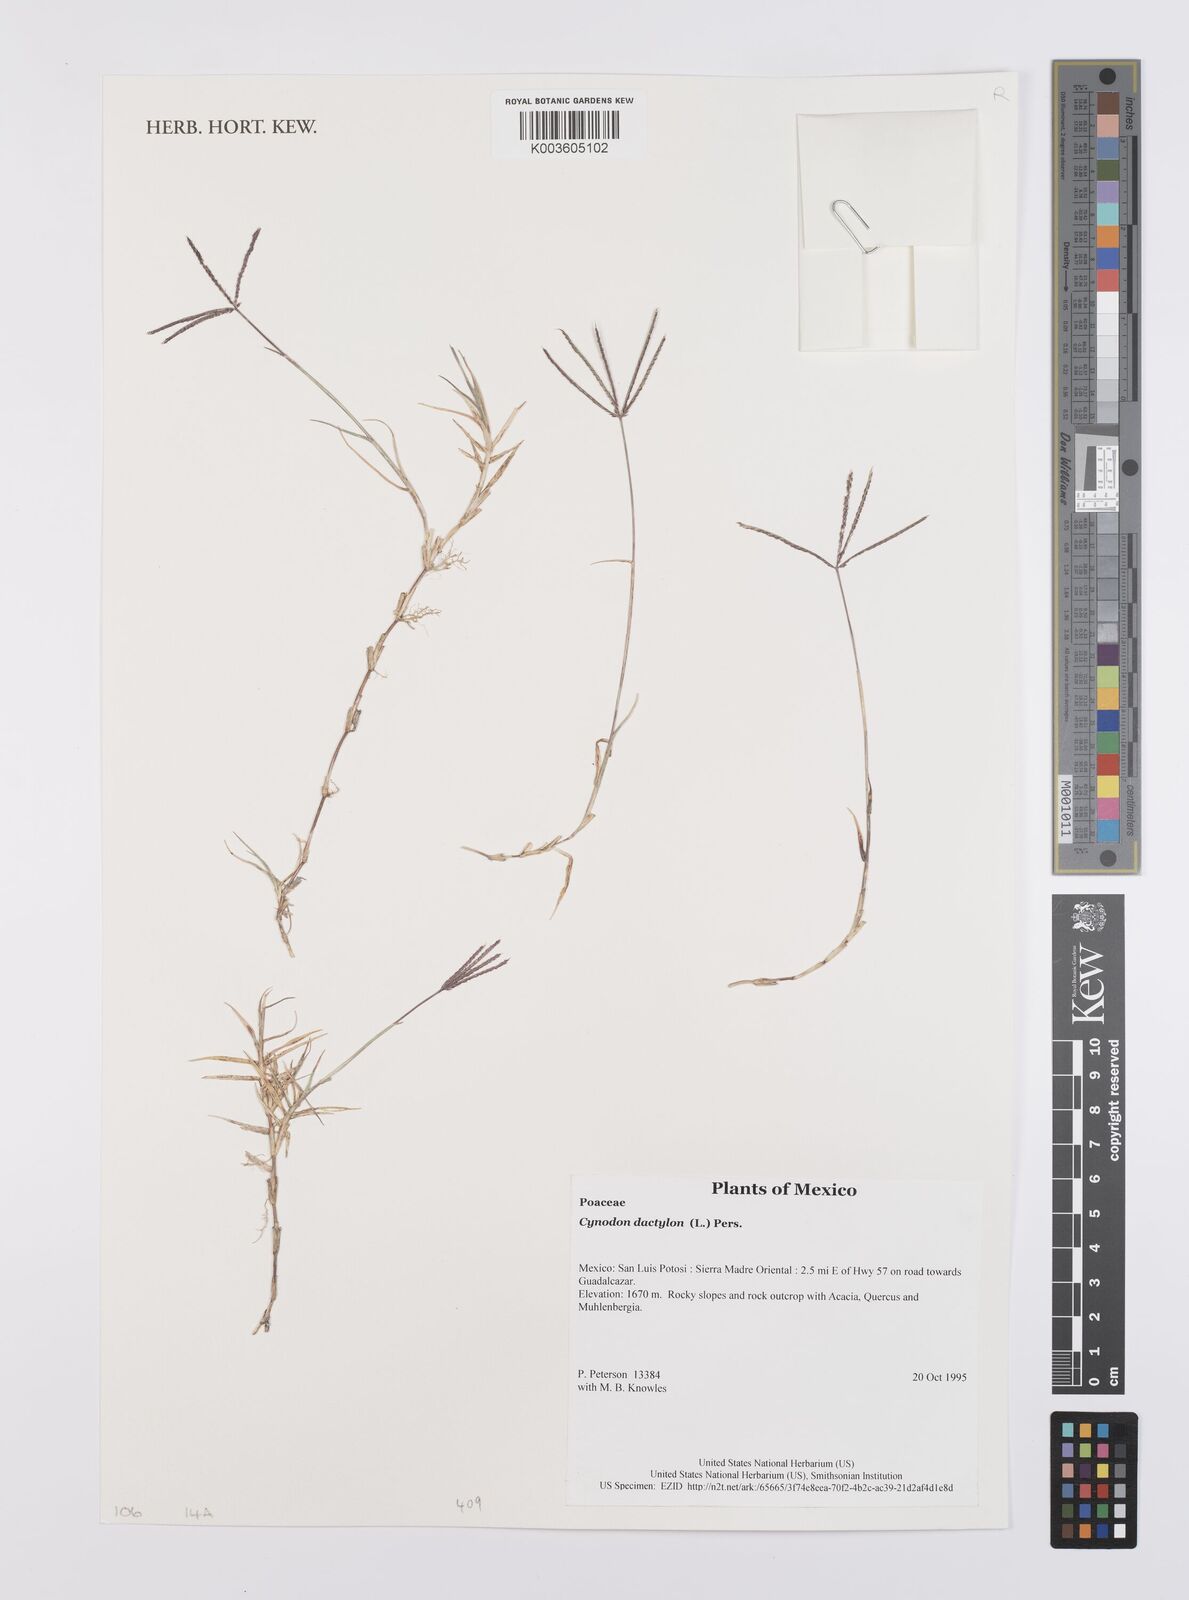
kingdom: Plantae
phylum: Tracheophyta
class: Liliopsida
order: Poales
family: Poaceae
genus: Cynodon
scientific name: Cynodon dactylon
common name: Bermuda grass
